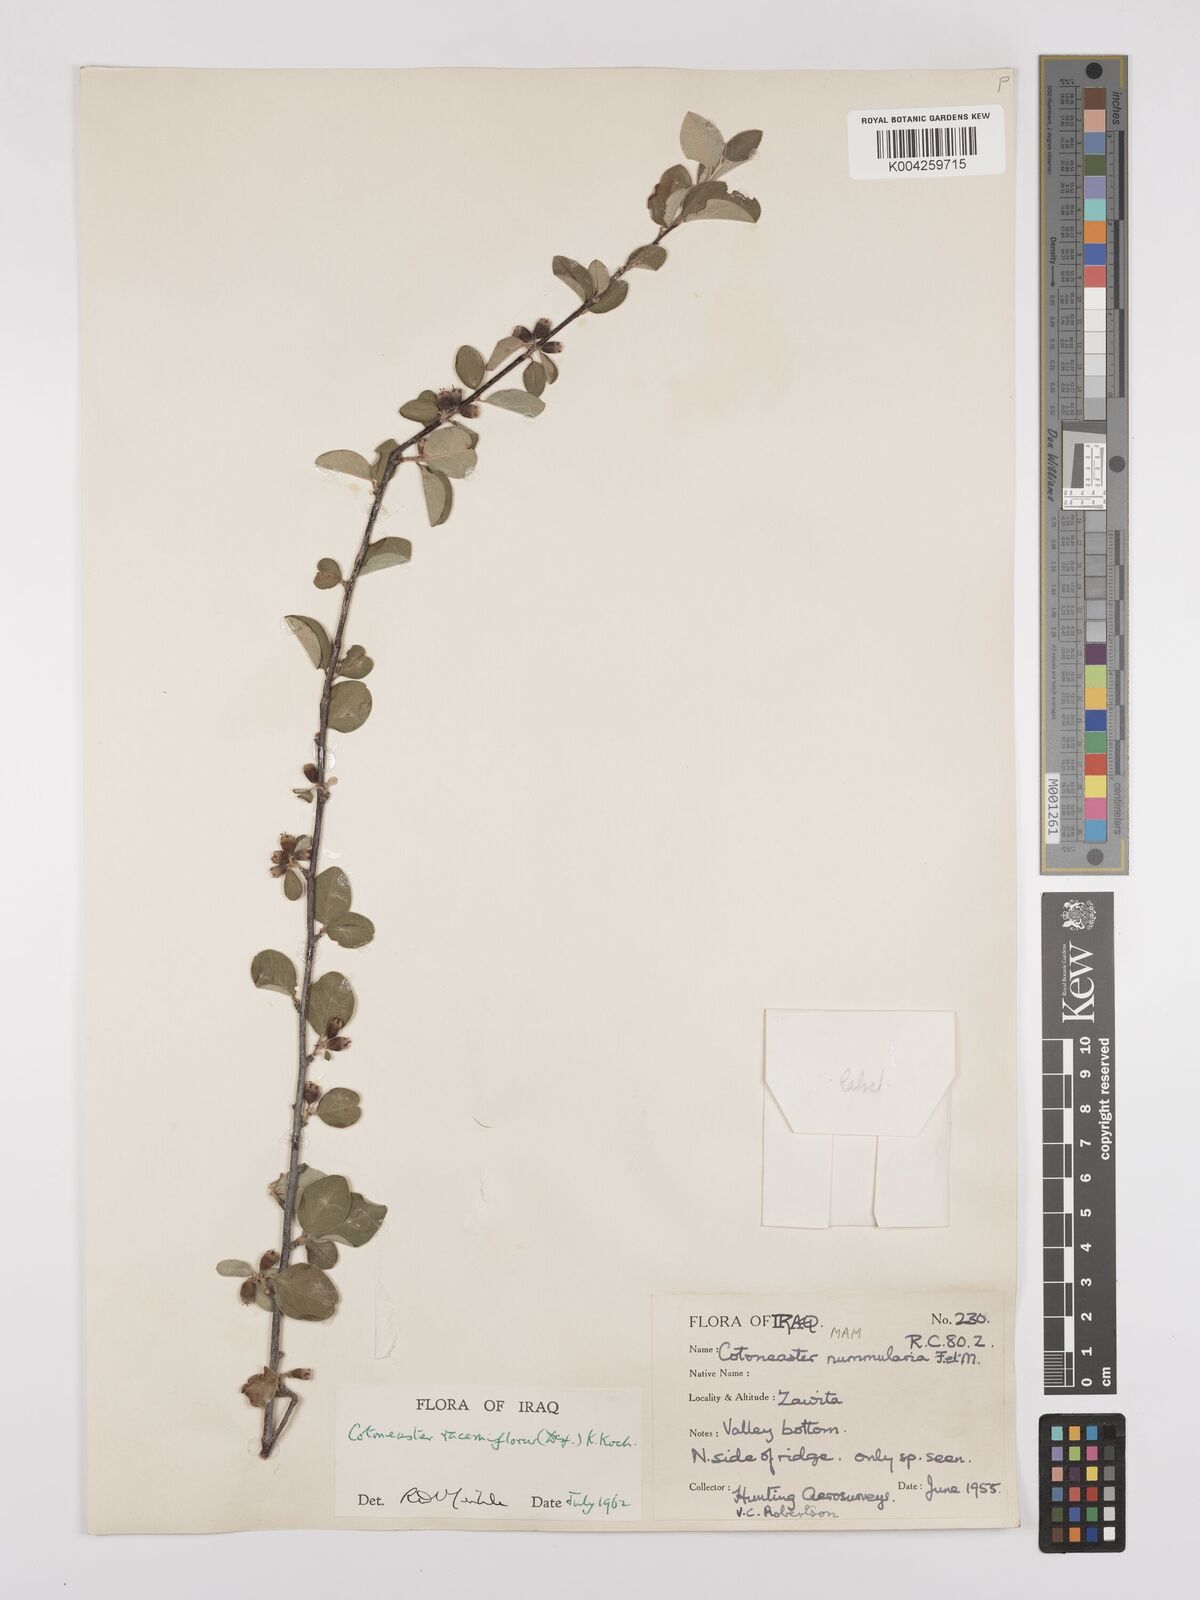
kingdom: Plantae
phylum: Tracheophyta
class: Magnoliopsida
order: Rosales
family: Rosaceae
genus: Cotoneaster
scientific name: Cotoneaster racemiflorus
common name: Cluster-flower cotoneaster
